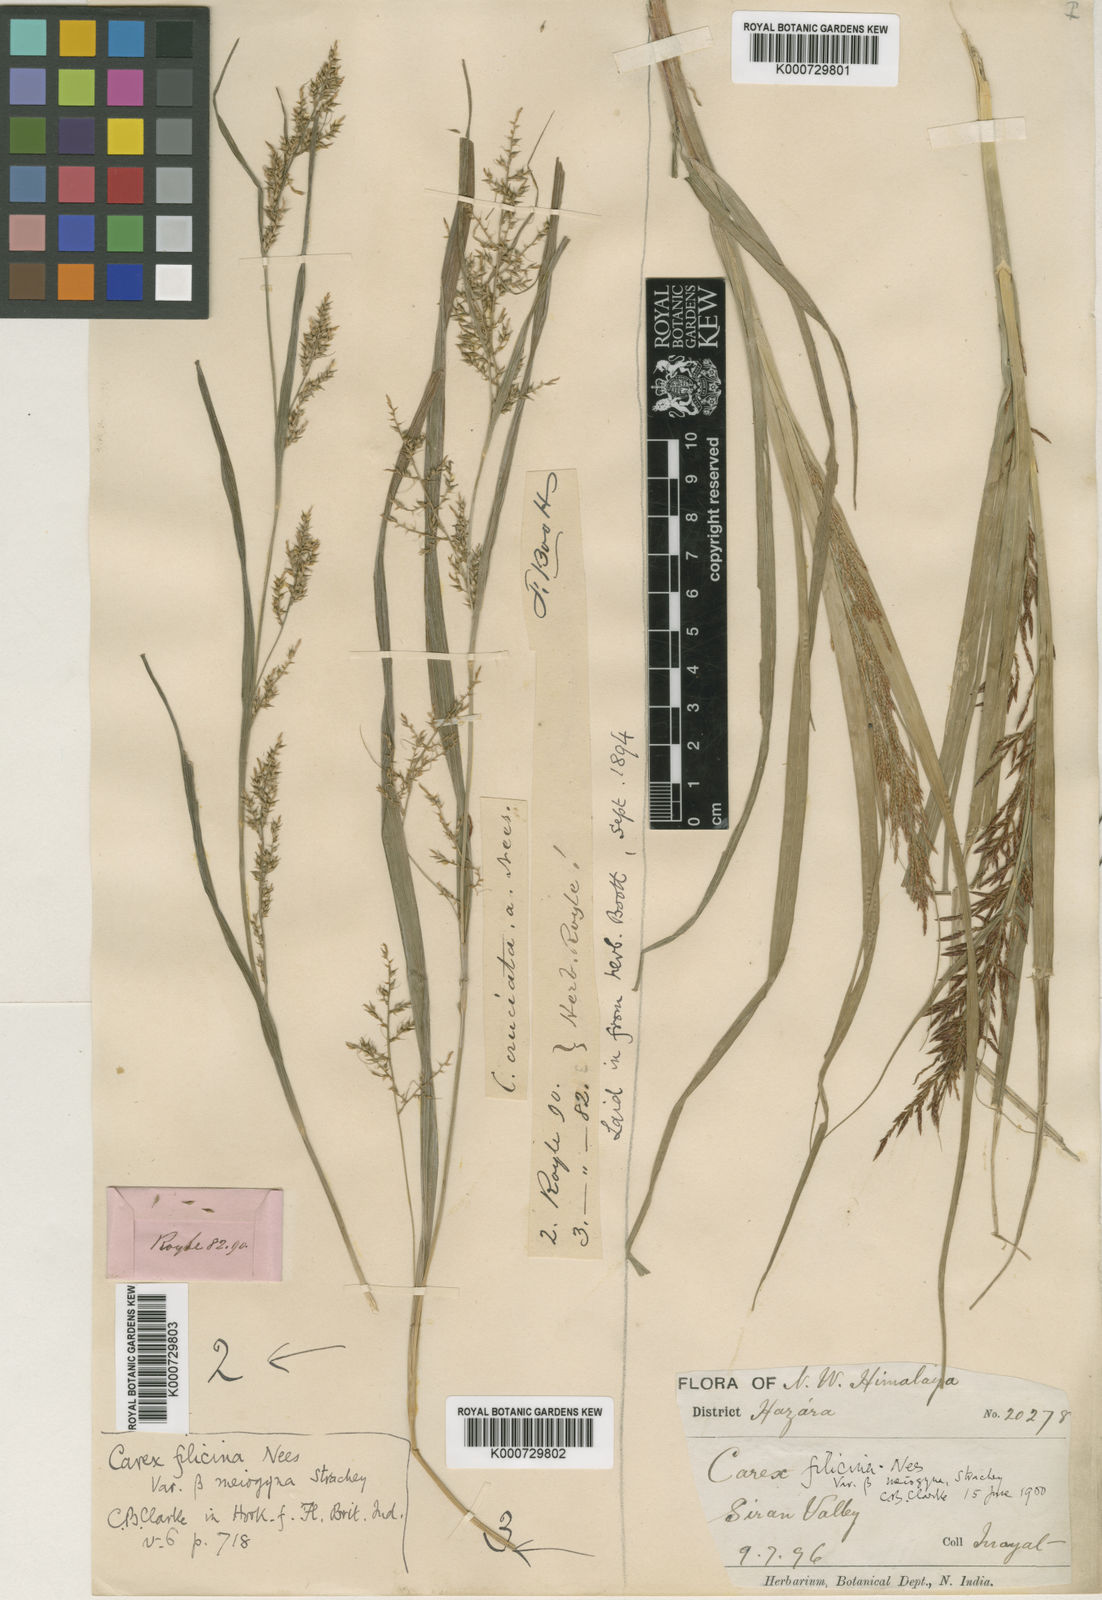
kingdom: Plantae
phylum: Tracheophyta
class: Liliopsida
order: Poales
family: Cyperaceae
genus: Carex
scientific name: Carex filicina
